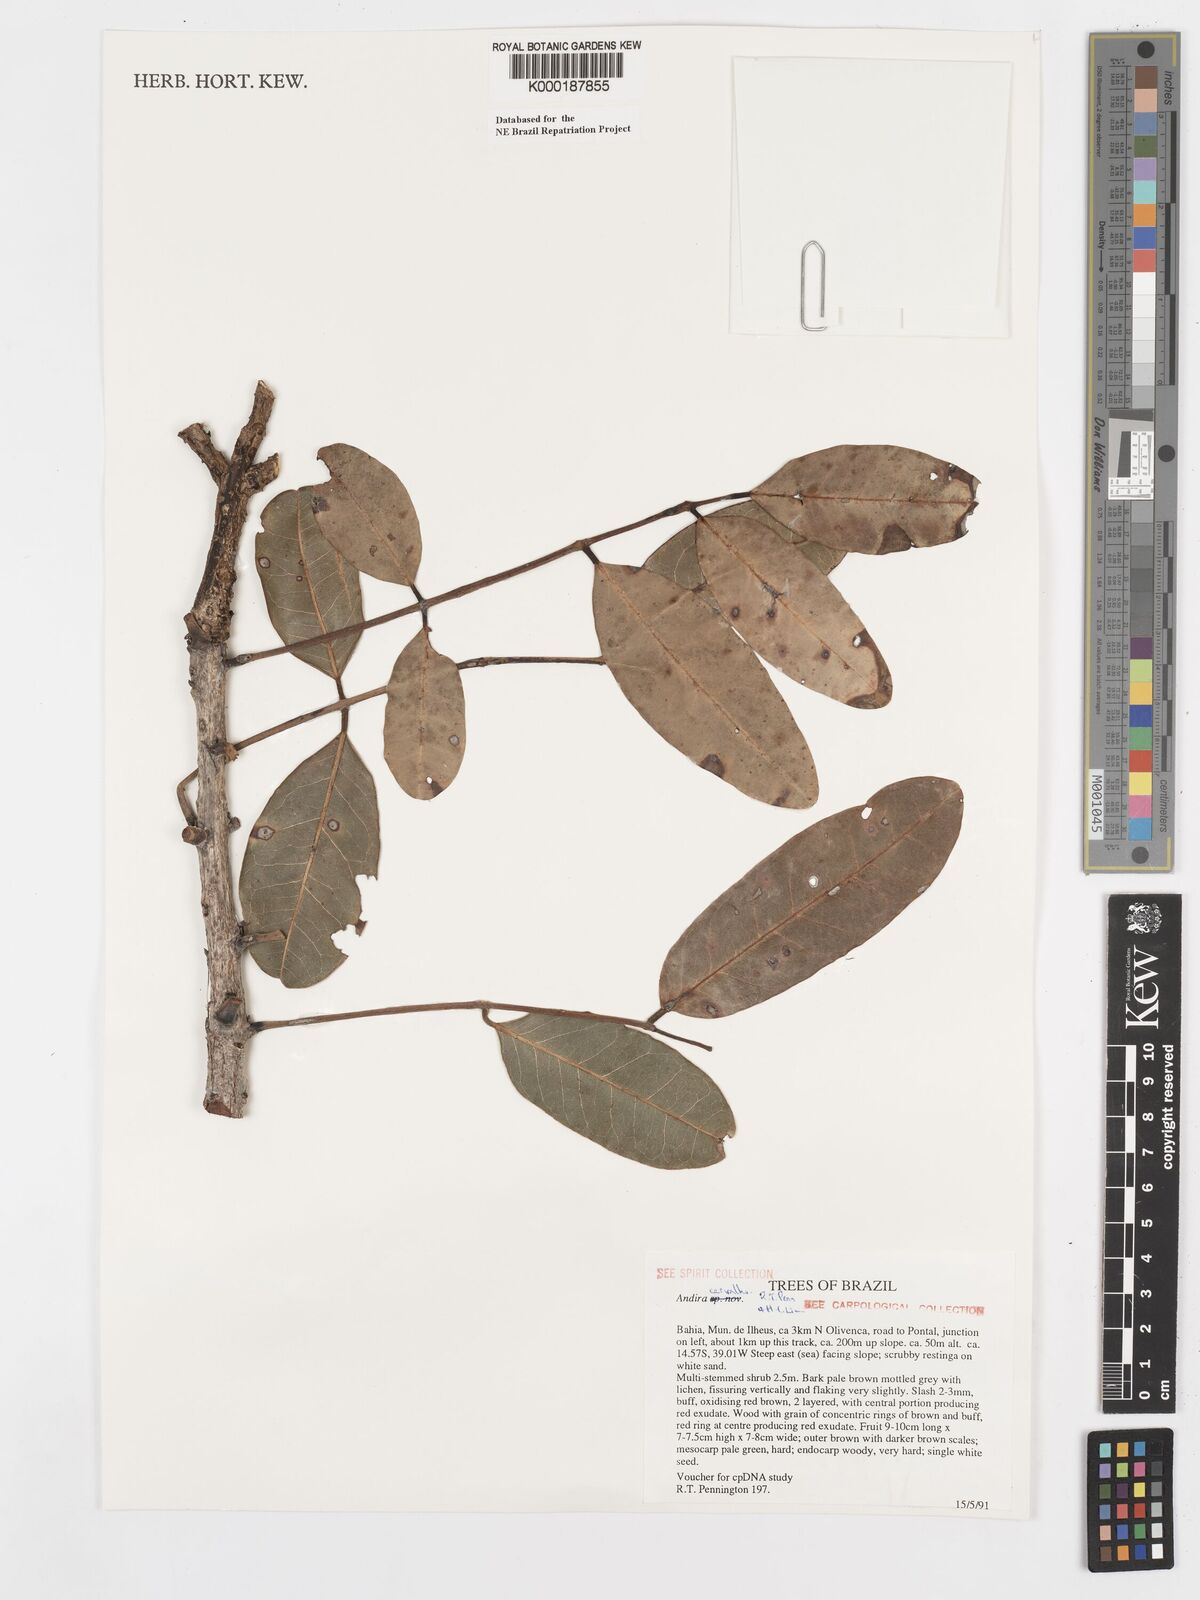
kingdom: Plantae
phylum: Tracheophyta
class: Magnoliopsida
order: Fabales
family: Fabaceae
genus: Andira
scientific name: Andira carvalhoi
